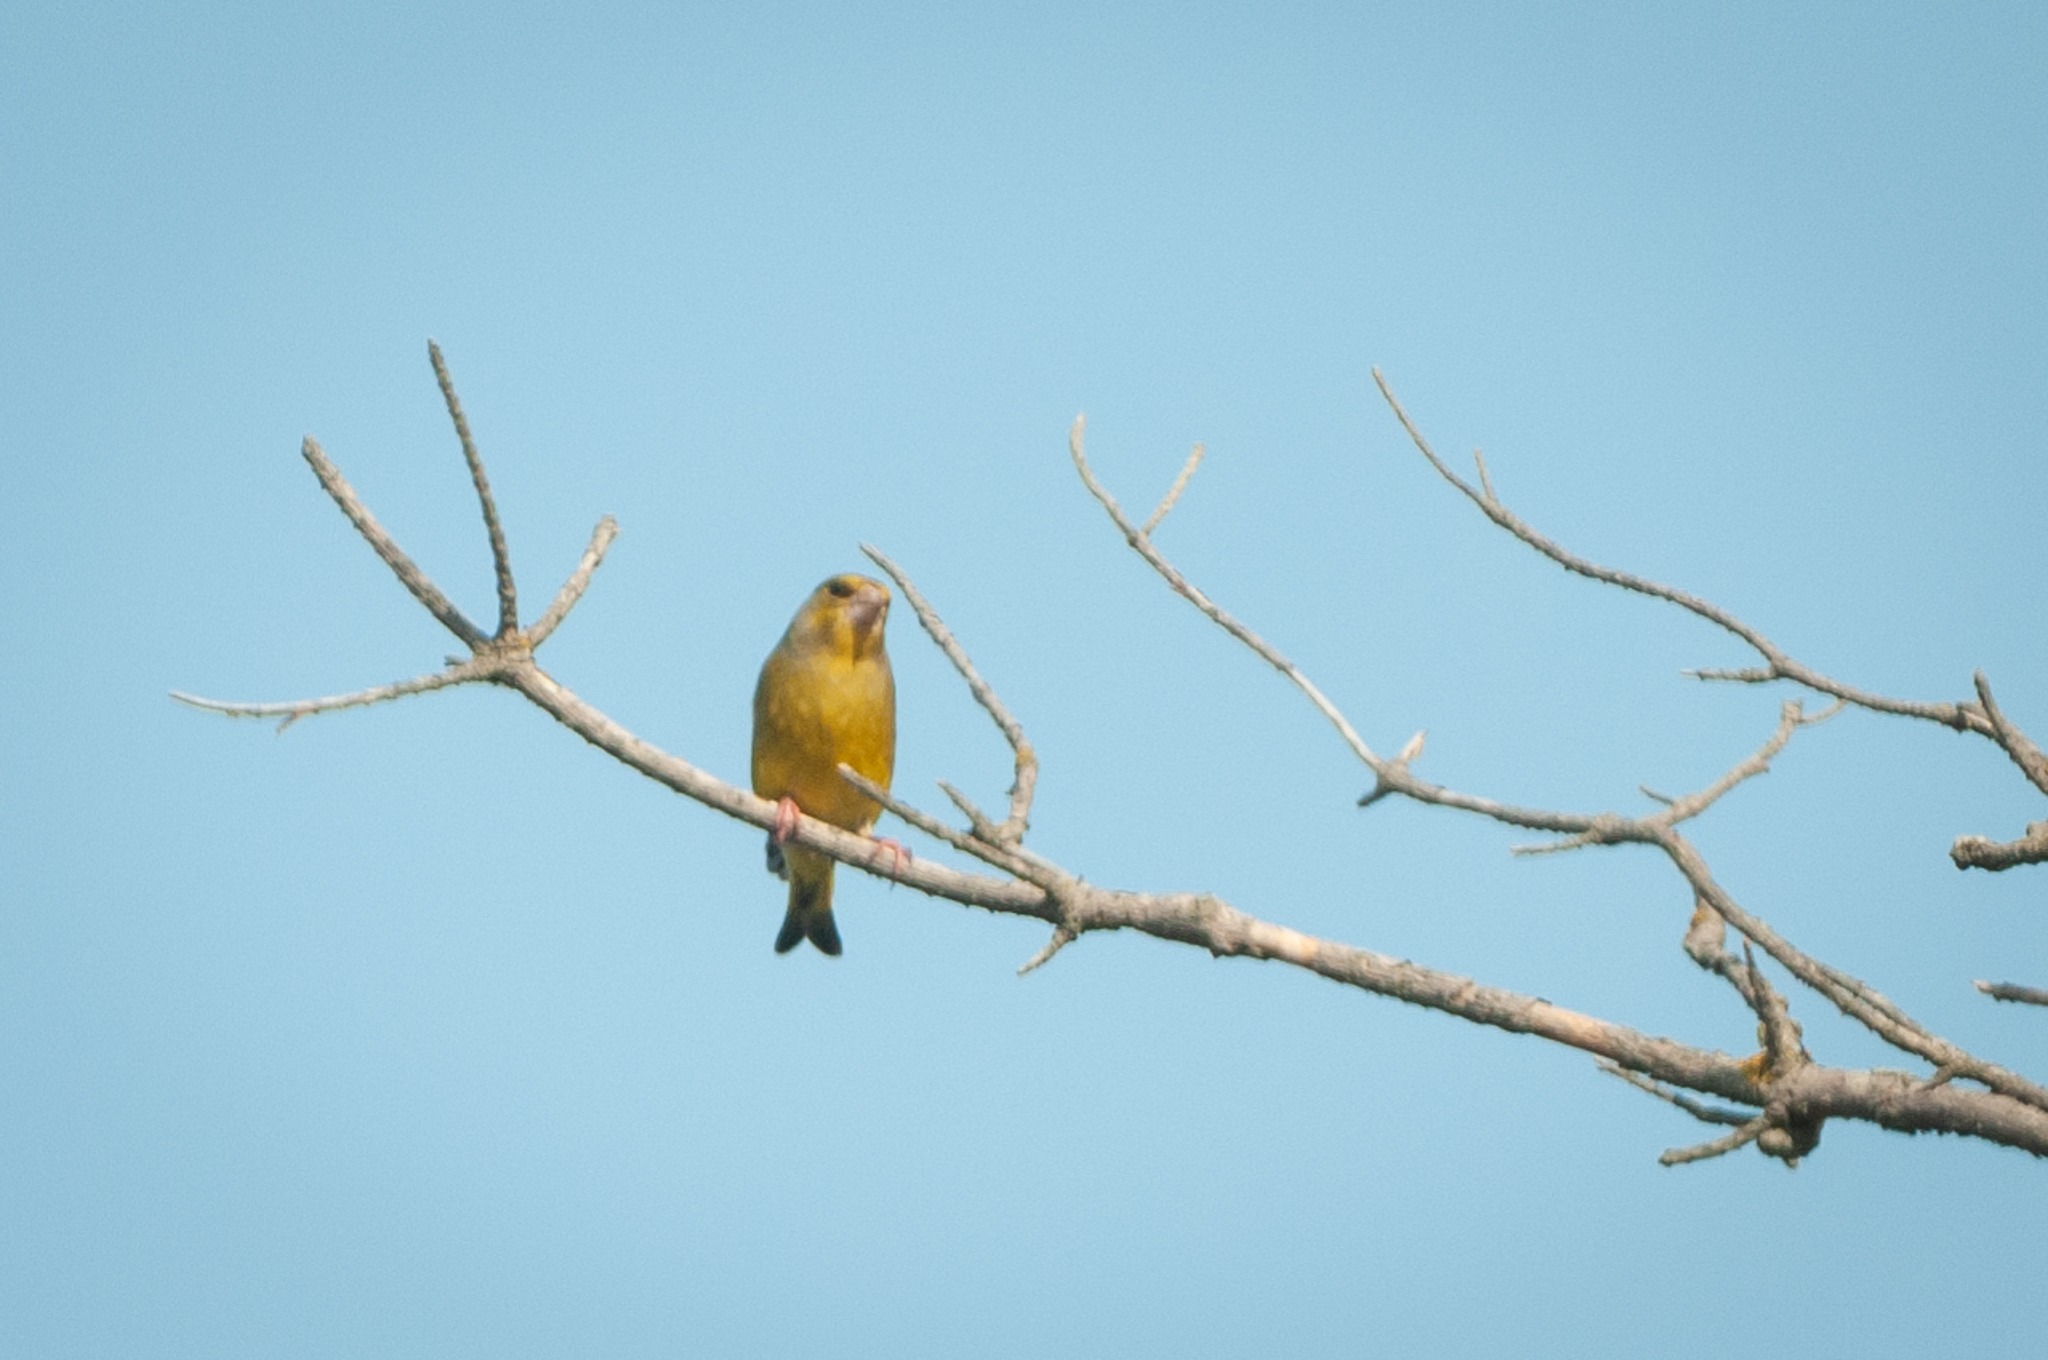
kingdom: Plantae
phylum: Tracheophyta
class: Liliopsida
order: Poales
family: Poaceae
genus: Chloris
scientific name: Chloris chloris
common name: Grønirisk
